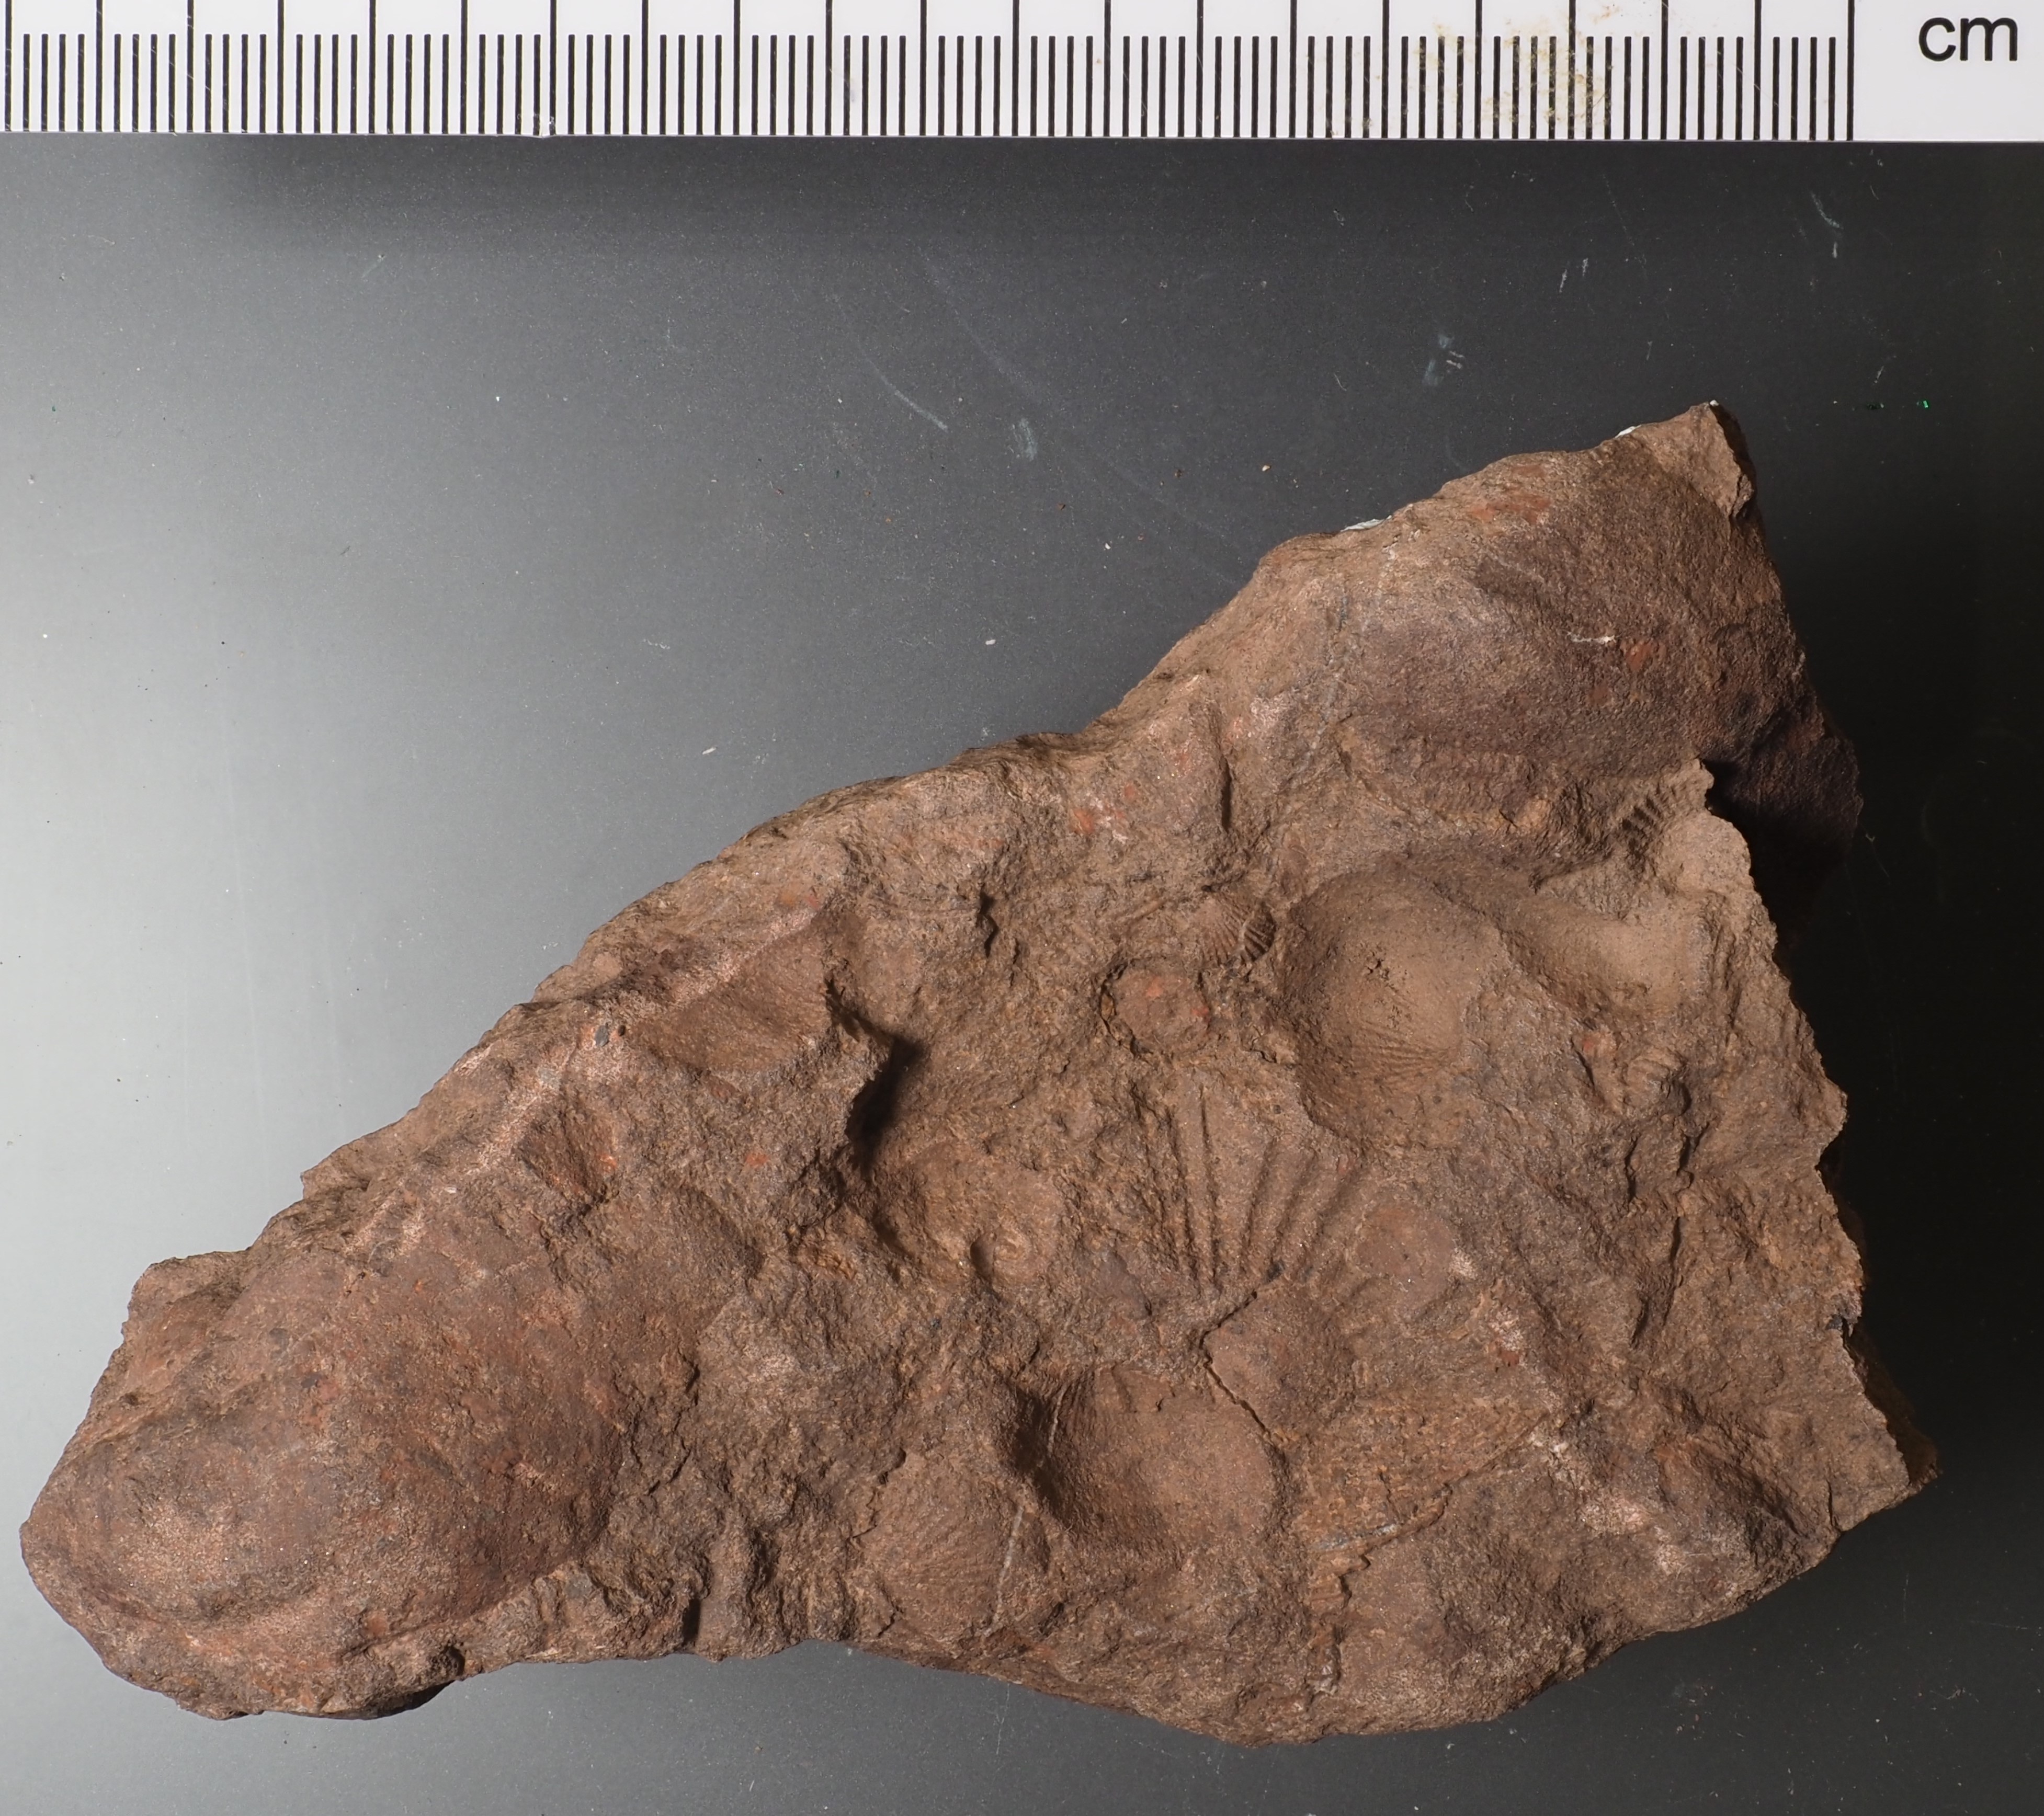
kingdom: Animalia
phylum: Mollusca
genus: Tolmaia
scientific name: Tolmaia
